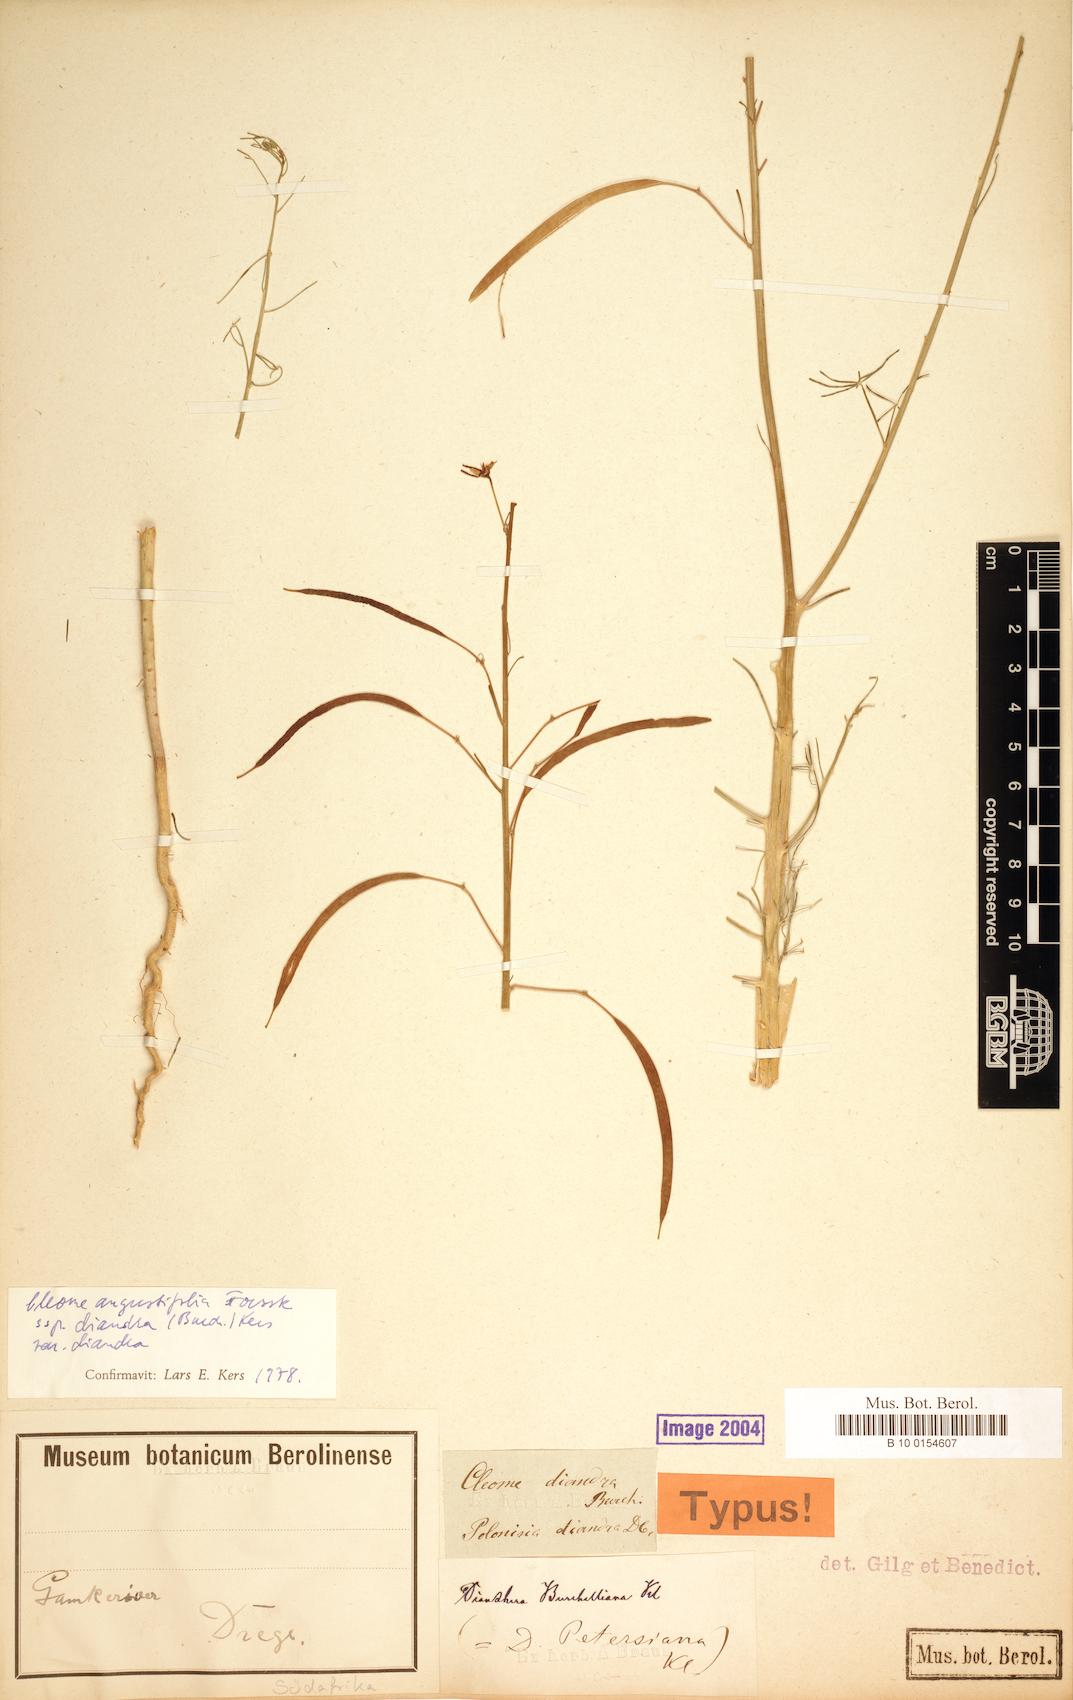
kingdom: Plantae
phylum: Tracheophyta
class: Magnoliopsida
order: Brassicales
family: Cleomaceae
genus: Coalisina
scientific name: Coalisina angustifolia
